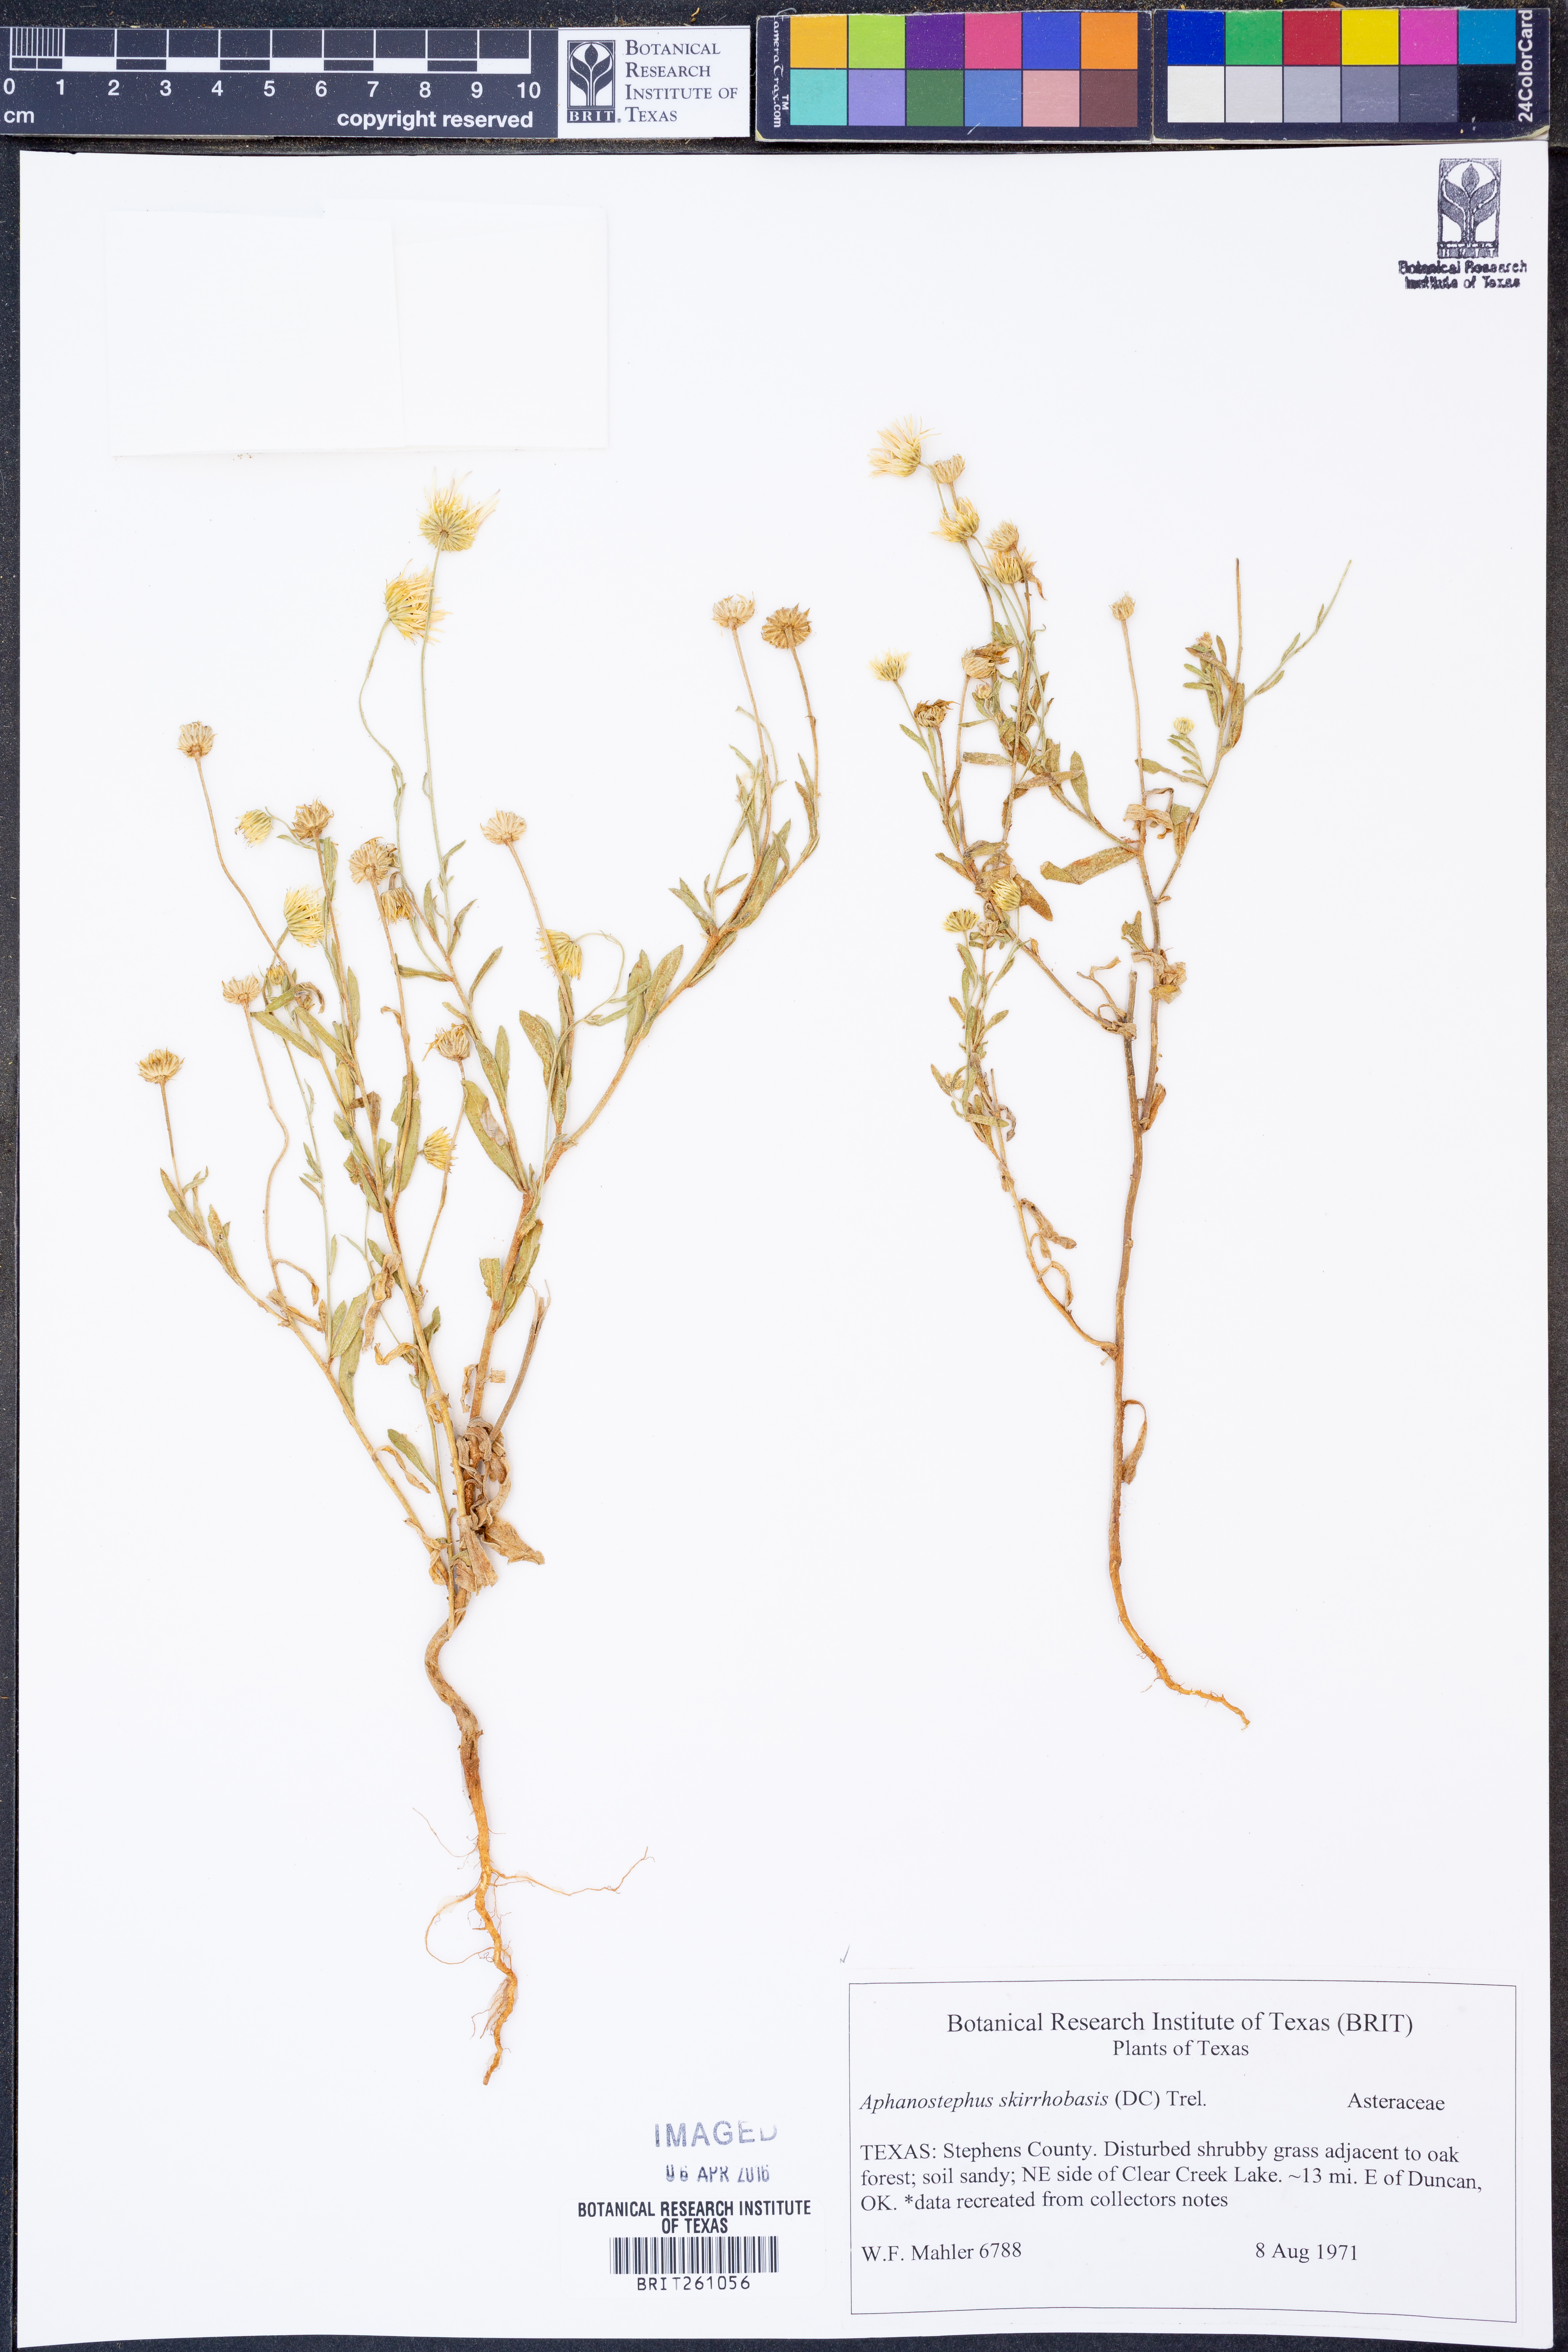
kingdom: Plantae
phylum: Tracheophyta
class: Magnoliopsida
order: Asterales
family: Asteraceae
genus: Aphanostephus
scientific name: Aphanostephus skirrhobasis
